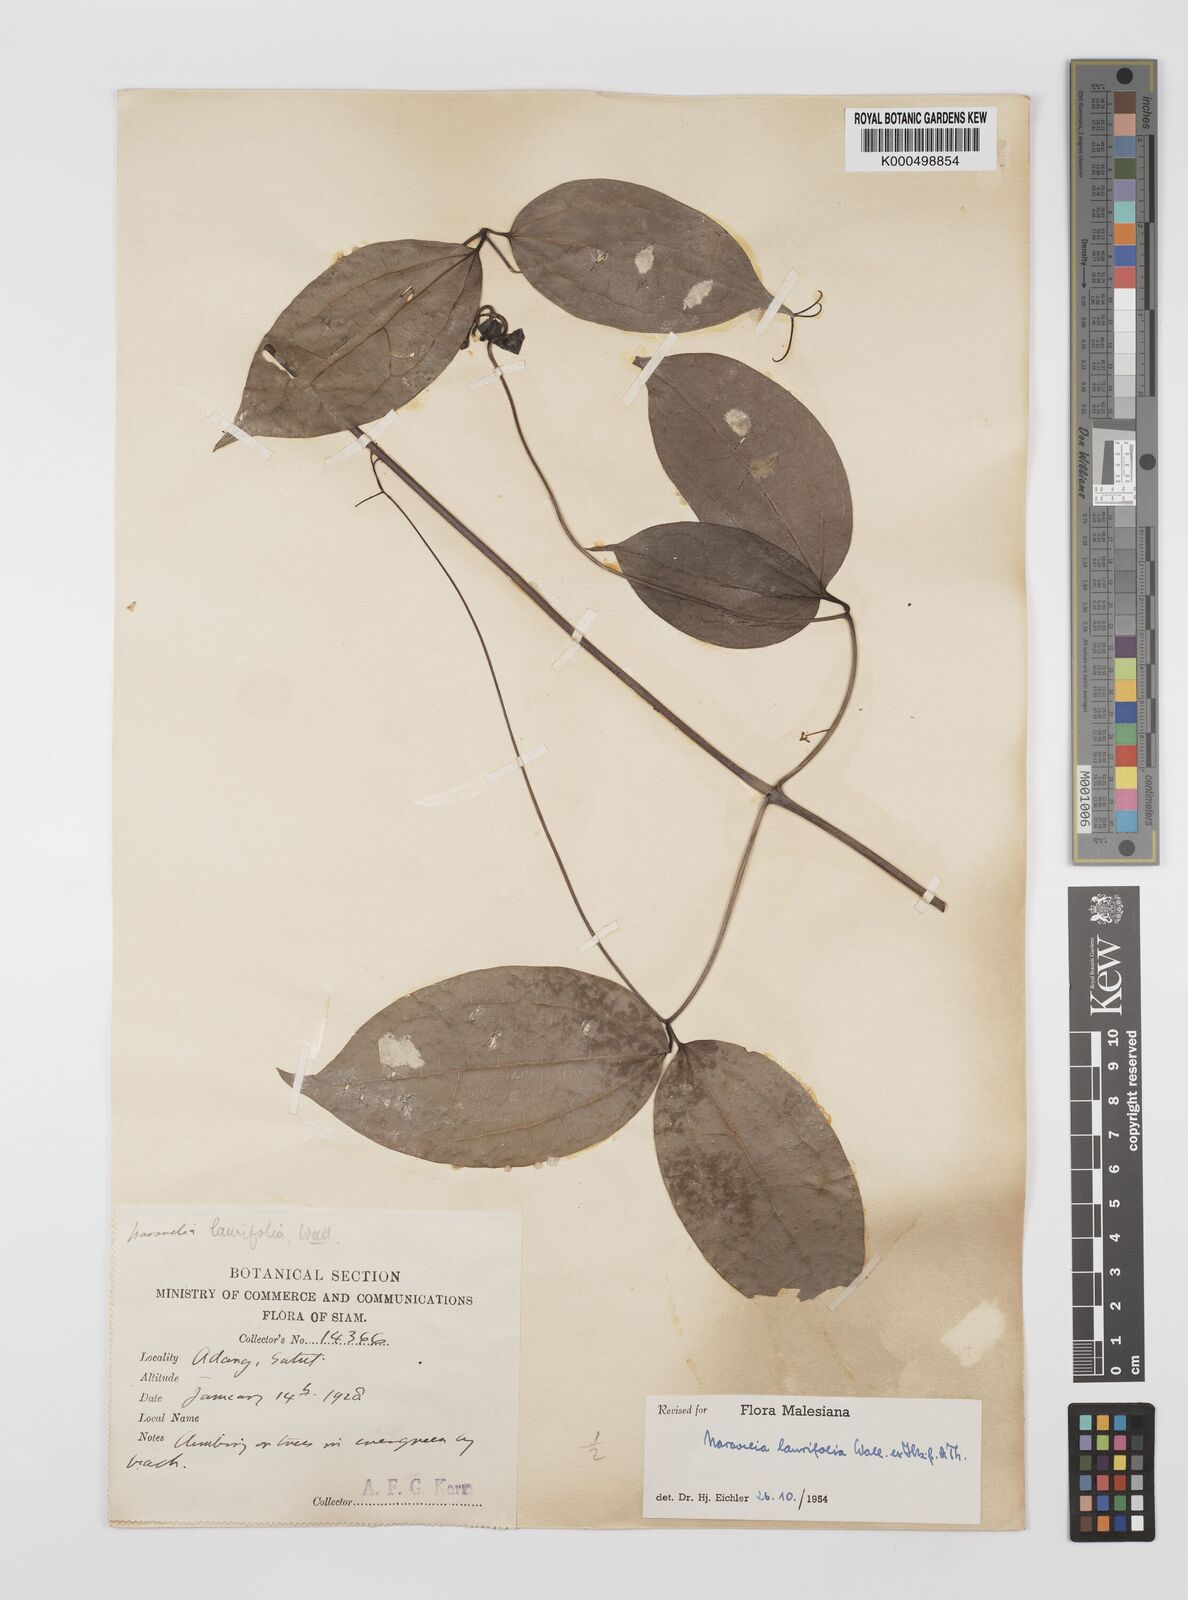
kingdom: Plantae
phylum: Tracheophyta
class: Magnoliopsida
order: Ranunculales
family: Ranunculaceae
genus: Clematis
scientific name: Clematis horripilata
